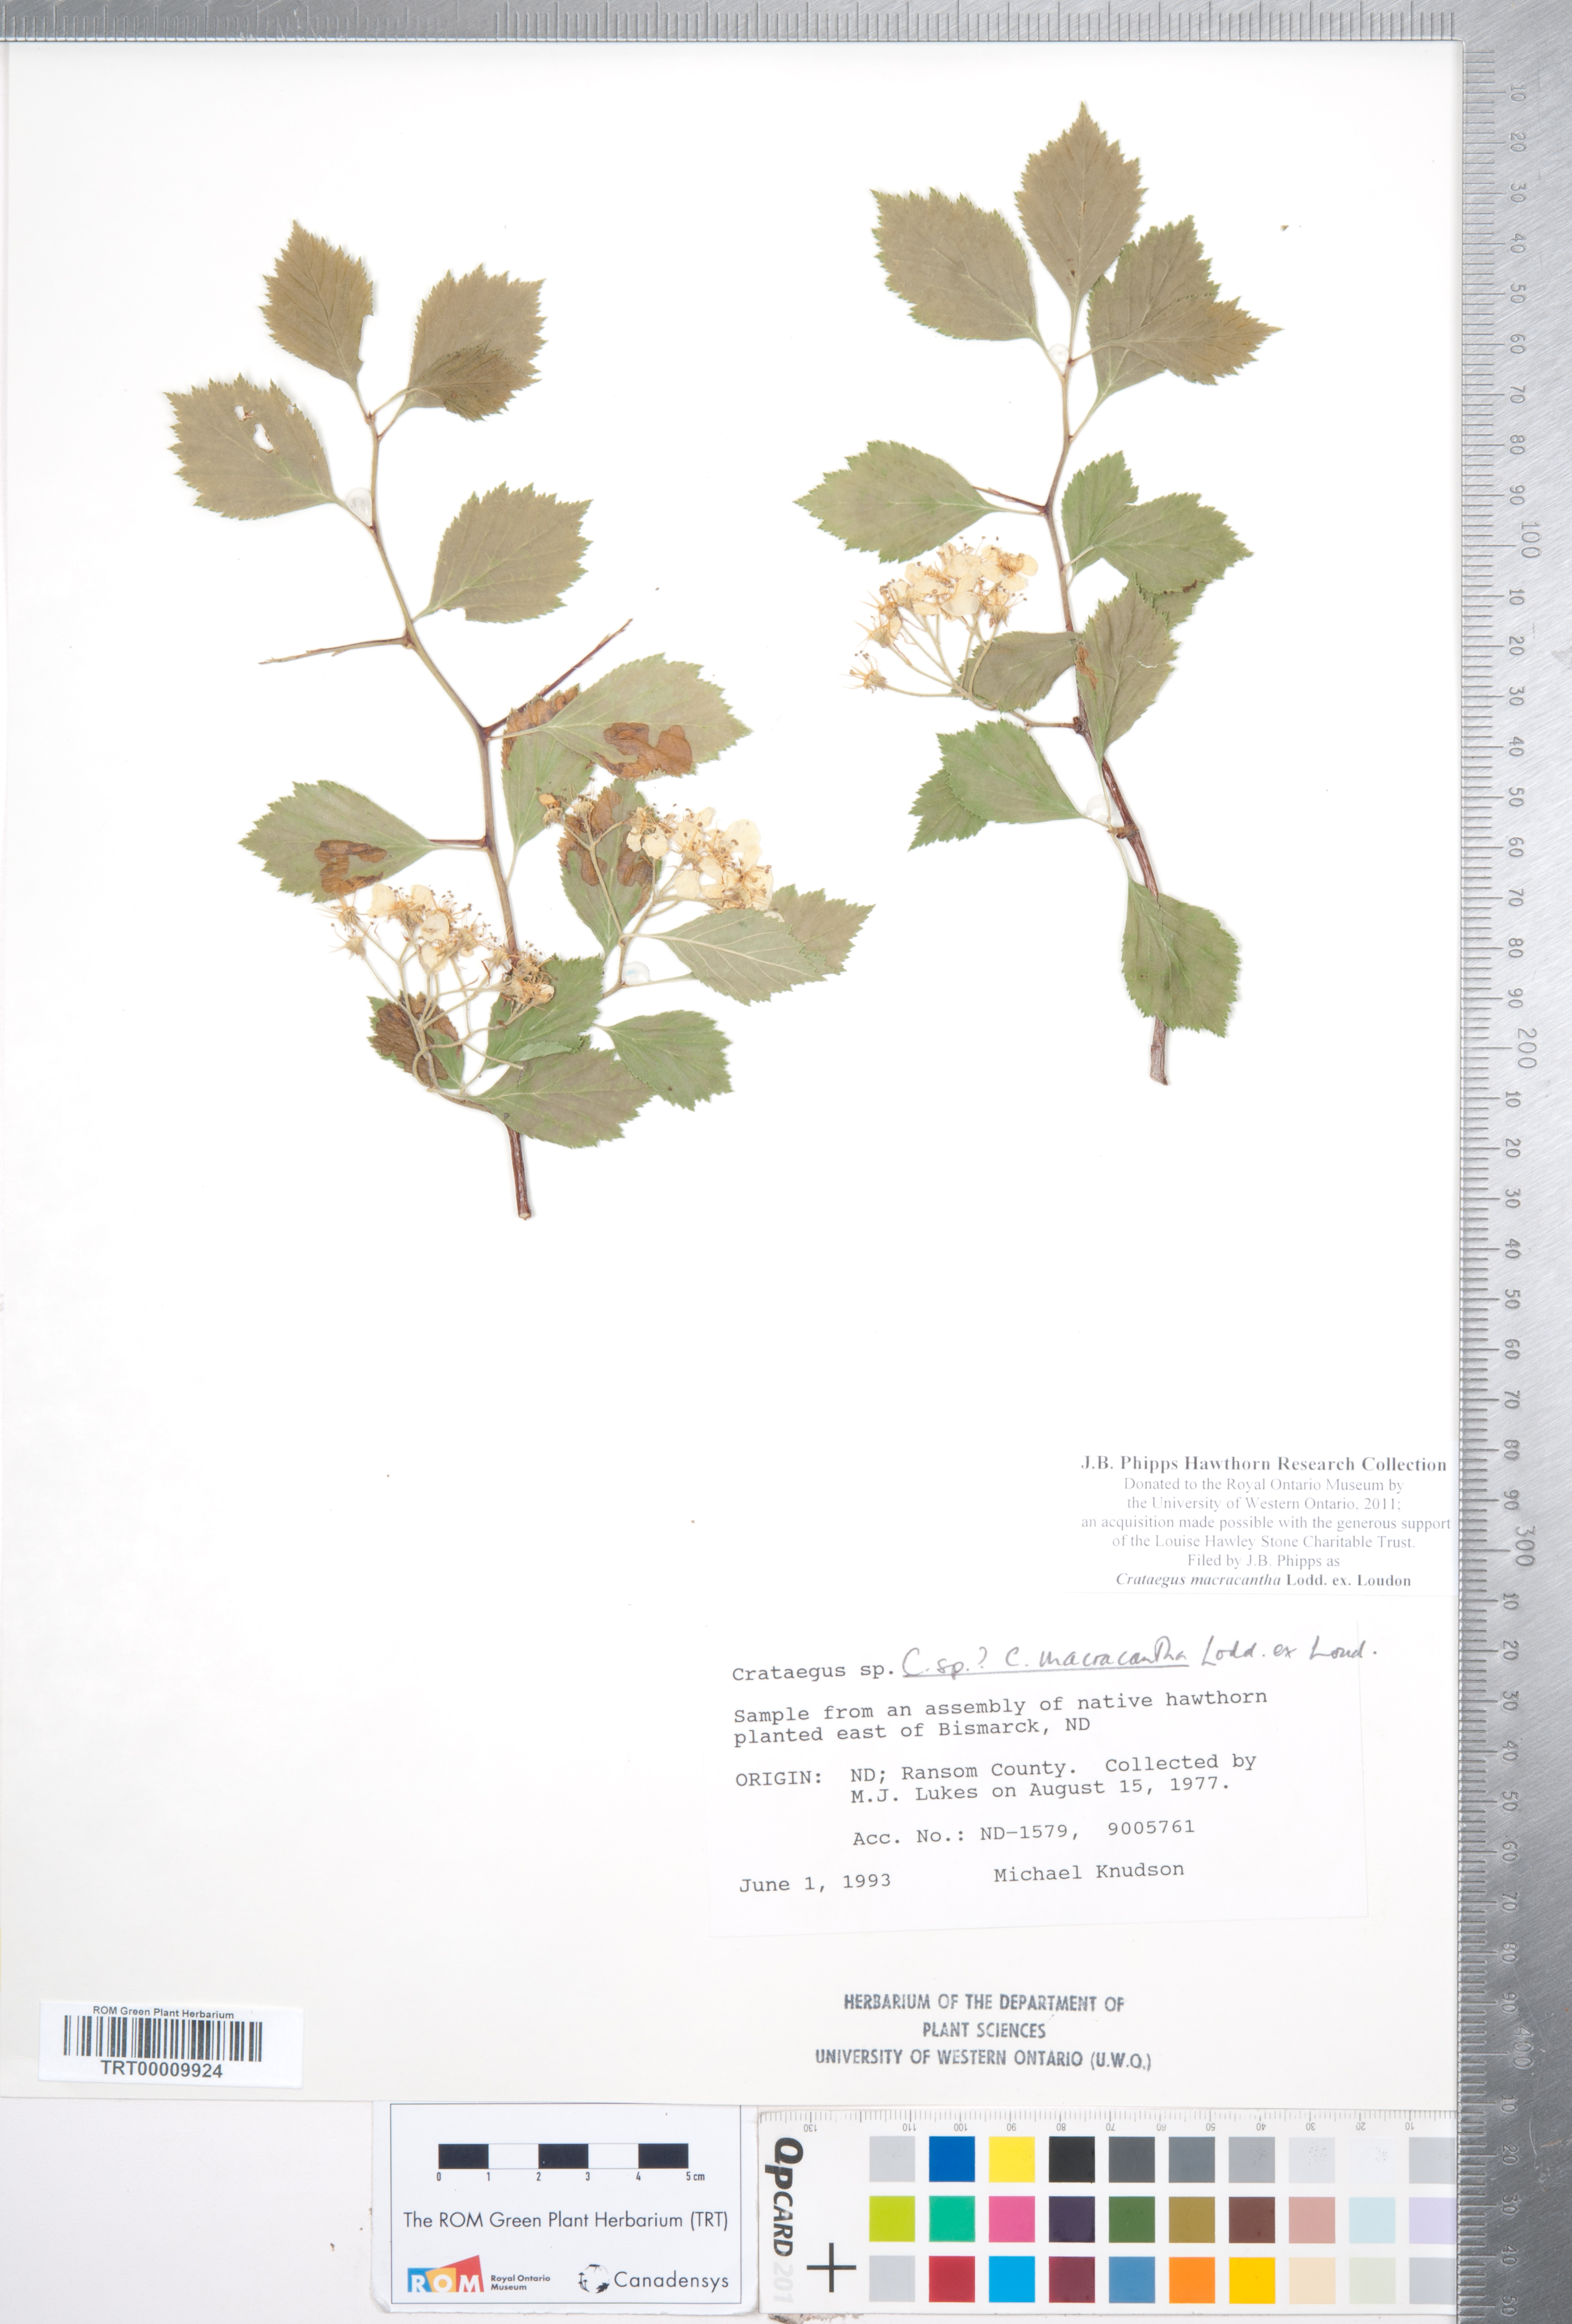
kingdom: Plantae
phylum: Tracheophyta
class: Magnoliopsida
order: Rosales
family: Rosaceae
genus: Crataegus
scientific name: Crataegus macracantha
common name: Large-thorn hawthorn
